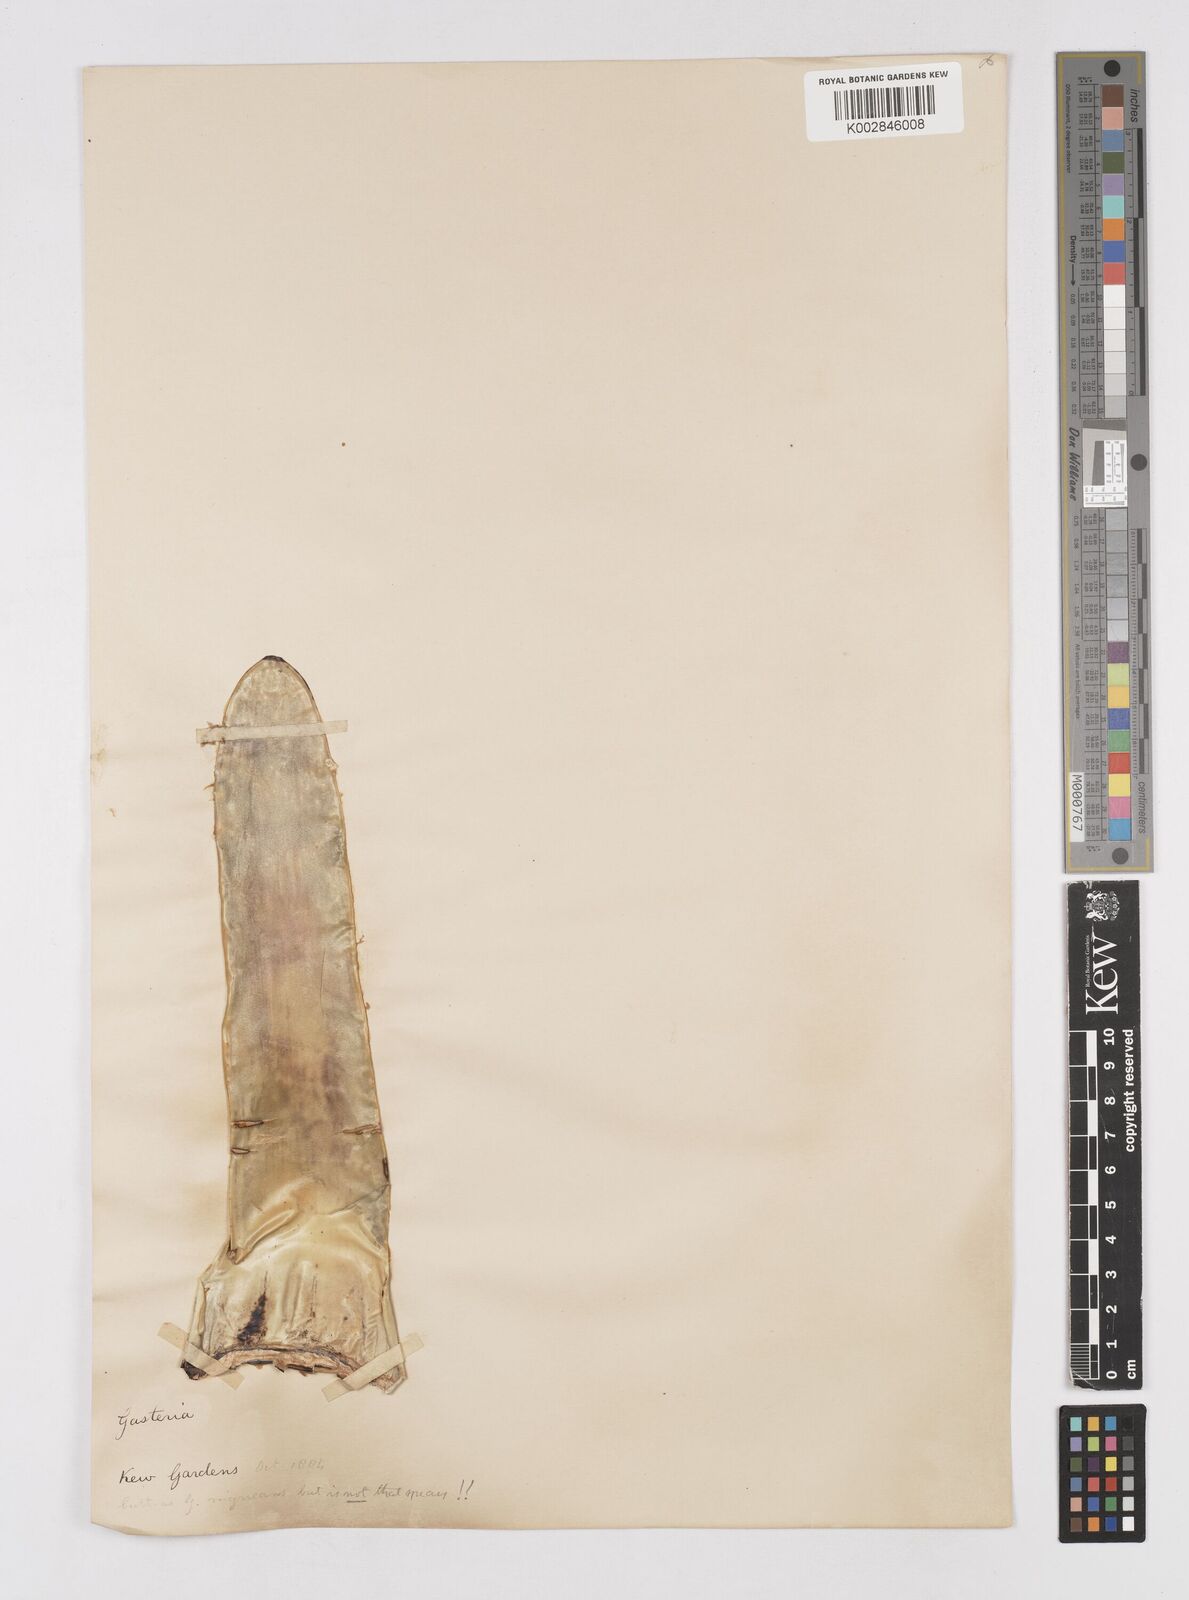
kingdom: Plantae
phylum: Tracheophyta
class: Liliopsida
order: Asparagales
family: Asphodelaceae
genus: Gasteria
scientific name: Gasteria obliqua
